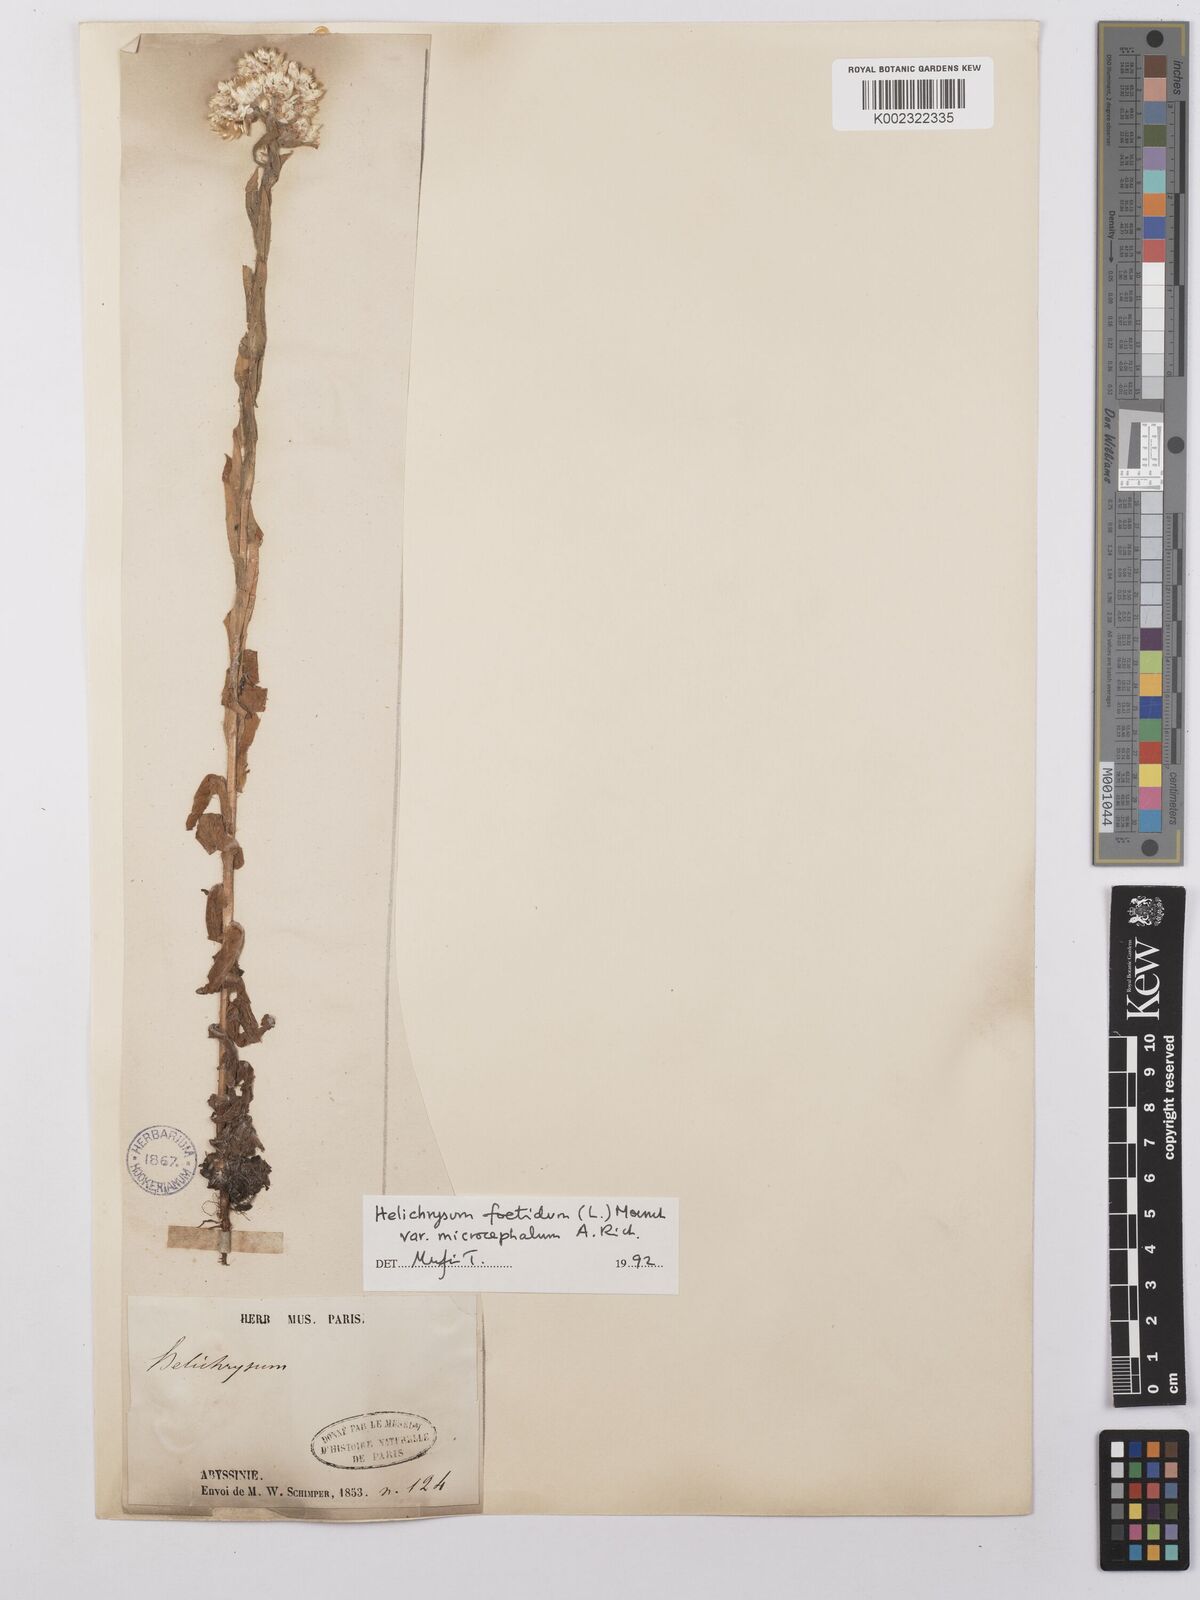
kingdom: Plantae
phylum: Tracheophyta
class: Magnoliopsida
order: Asterales
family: Asteraceae
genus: Helichrysum
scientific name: Helichrysum foetidum
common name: Stinking everlasting
